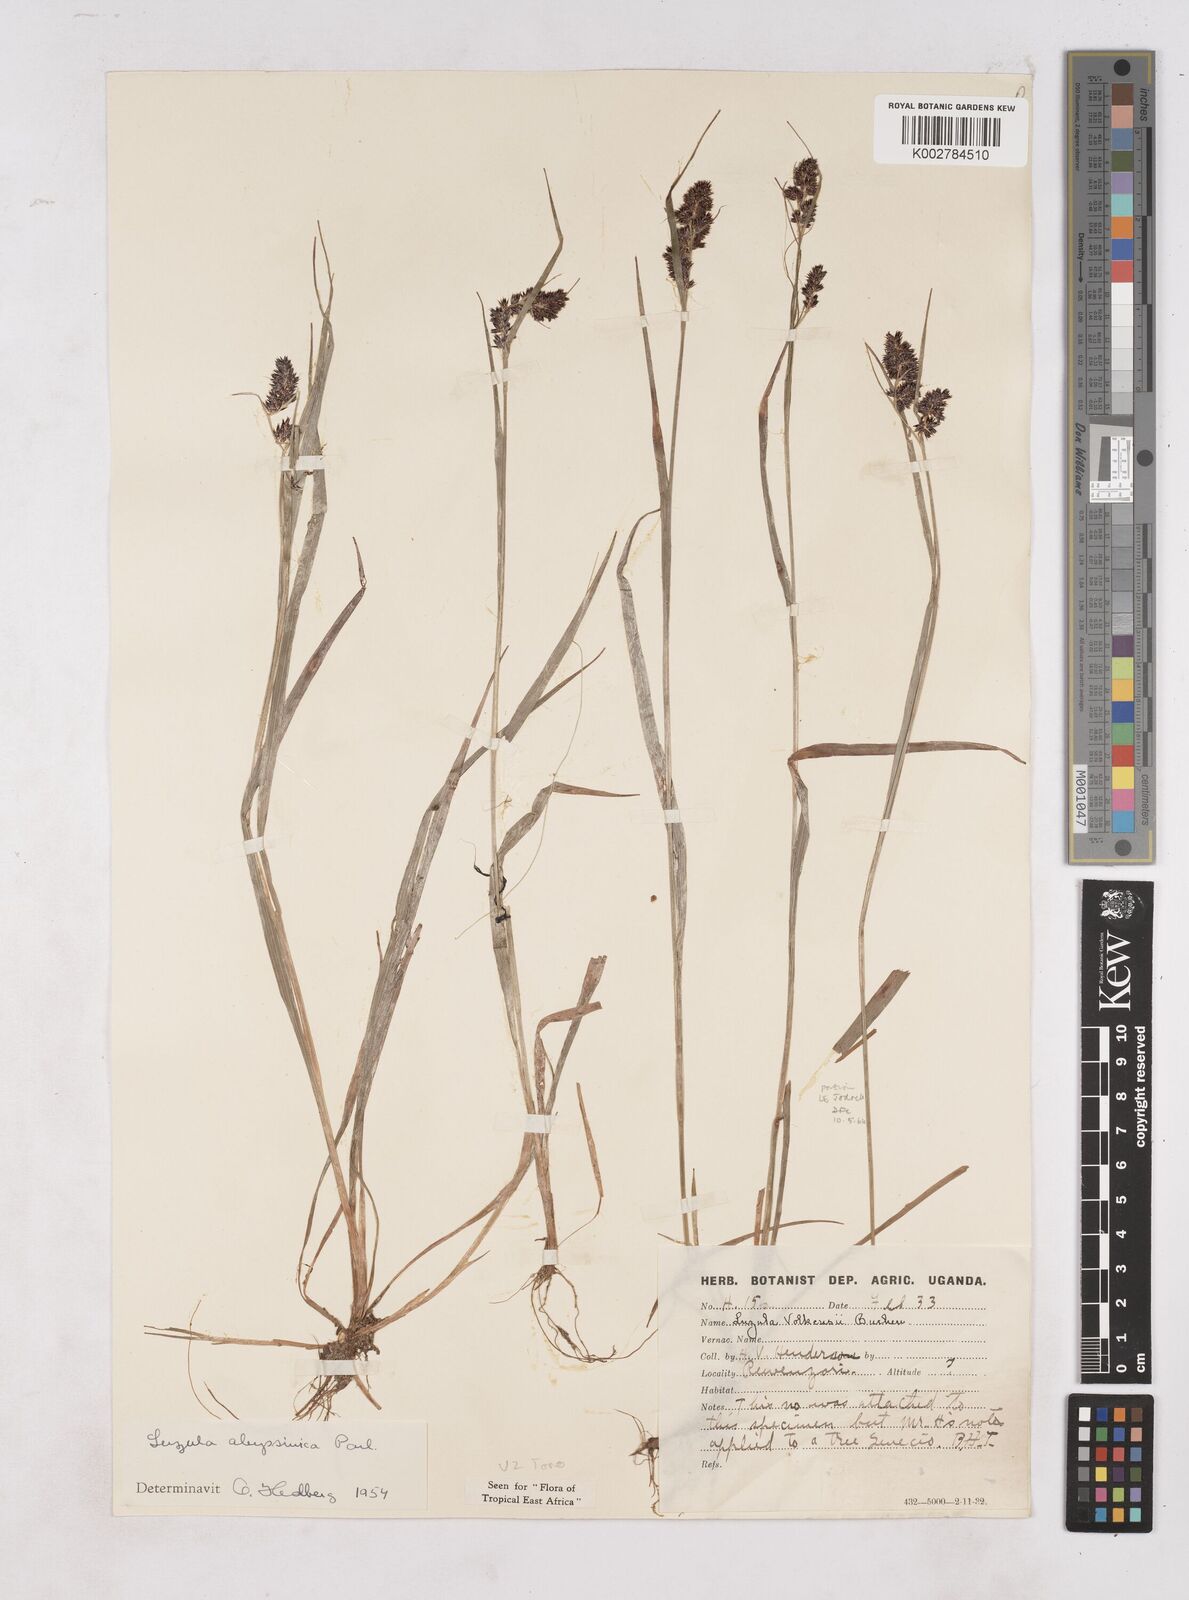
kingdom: Plantae
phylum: Tracheophyta
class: Liliopsida
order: Poales
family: Juncaceae
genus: Luzula
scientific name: Luzula abyssinica
